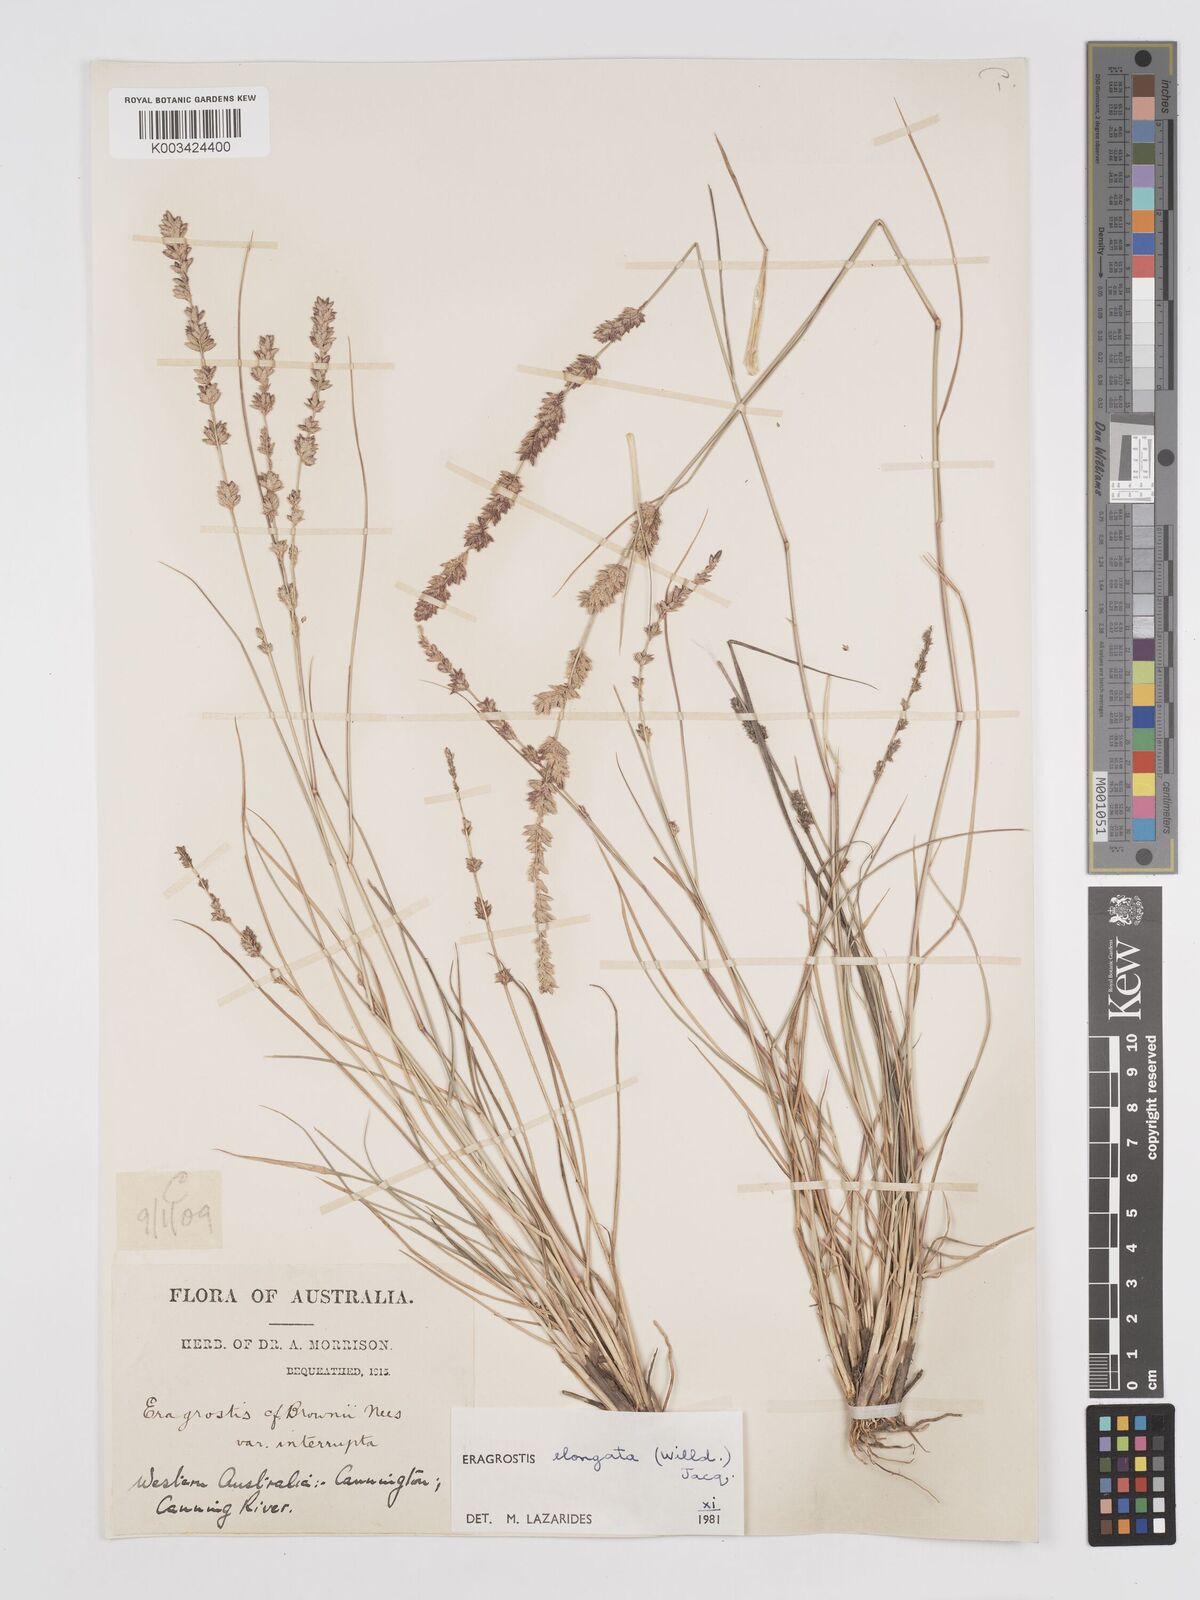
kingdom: Plantae
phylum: Tracheophyta
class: Liliopsida
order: Poales
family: Poaceae
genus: Eragrostis
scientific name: Eragrostis elongata
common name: Long lovegrass
